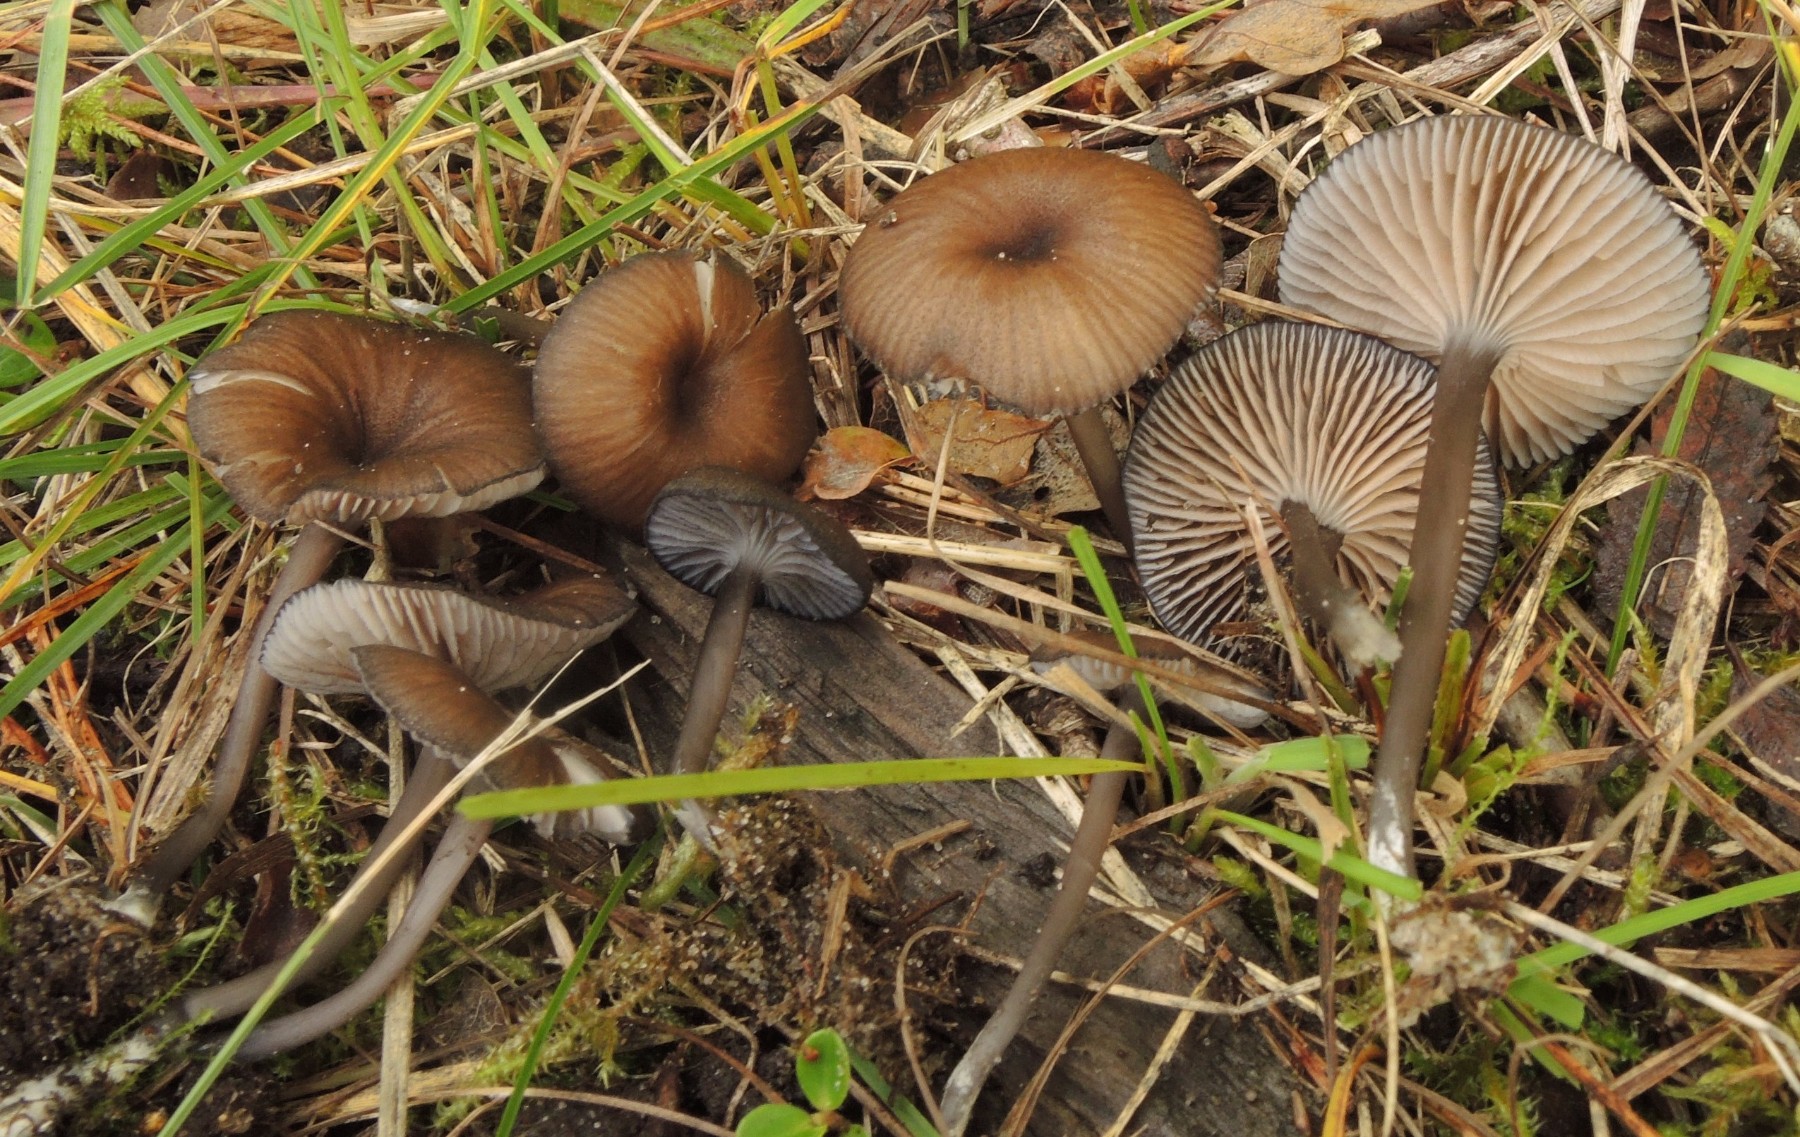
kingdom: Fungi
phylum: Basidiomycota
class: Agaricomycetes
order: Agaricales
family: Entolomataceae
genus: Entoloma
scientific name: Entoloma caesiocinctum
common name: Blue-girdled pinkgill
